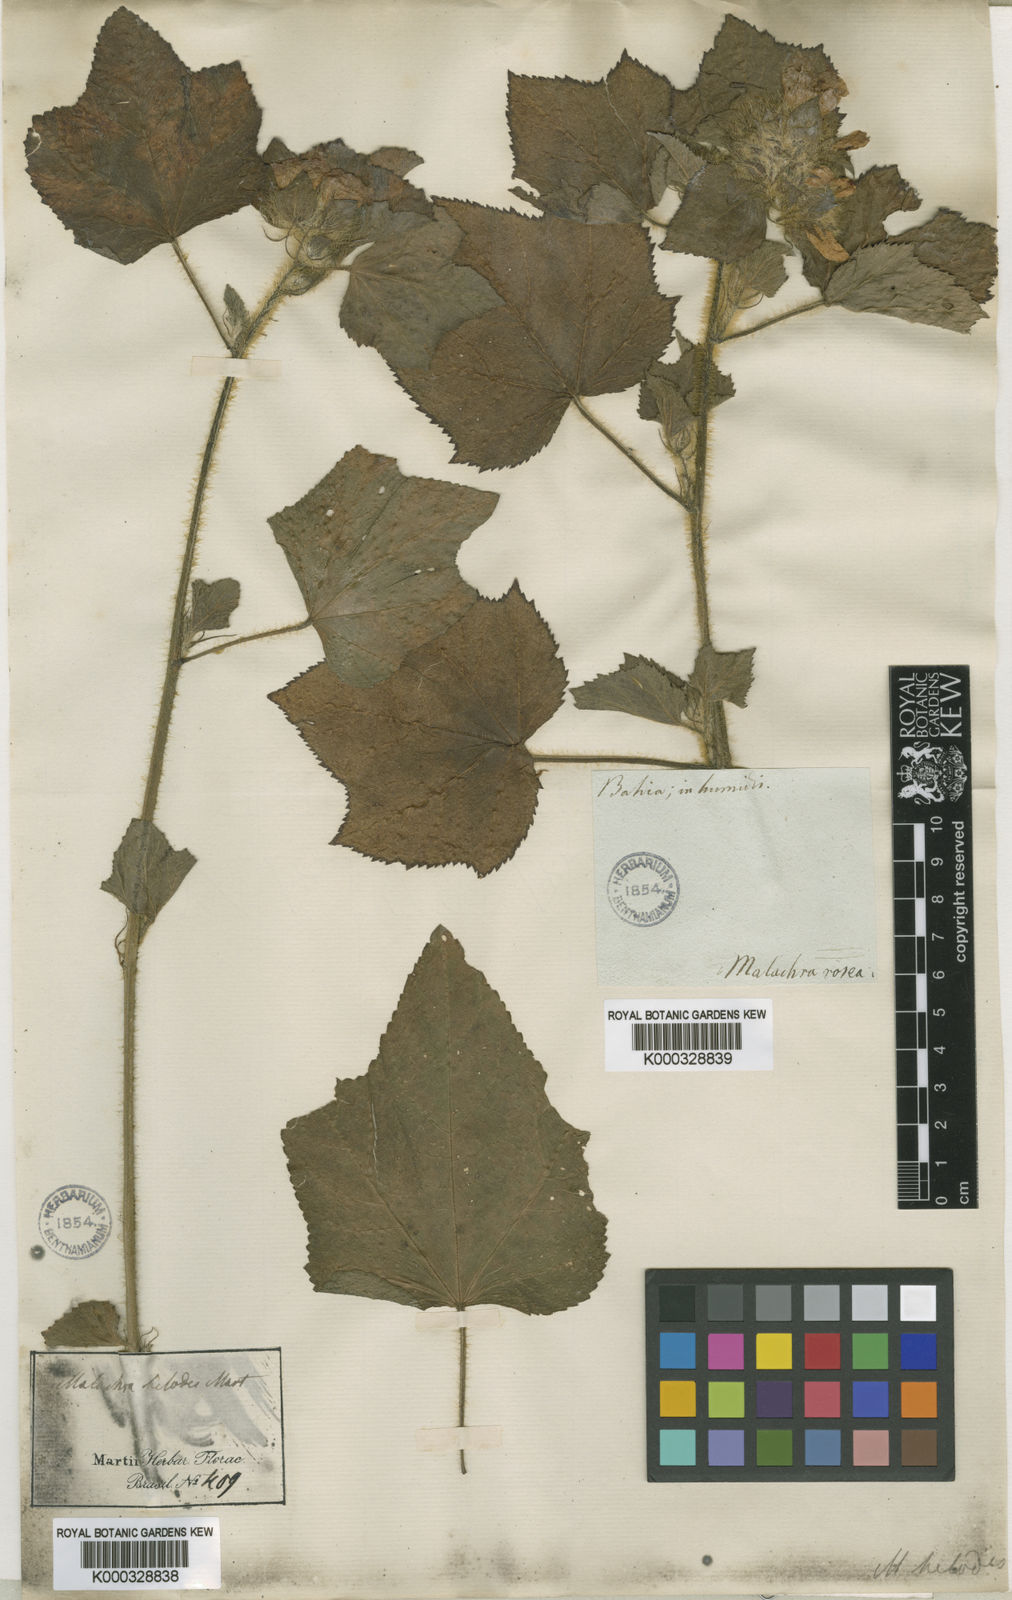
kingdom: Plantae
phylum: Tracheophyta
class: Magnoliopsida
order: Malvales
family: Malvaceae
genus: Malachra
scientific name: Malachra helodes
